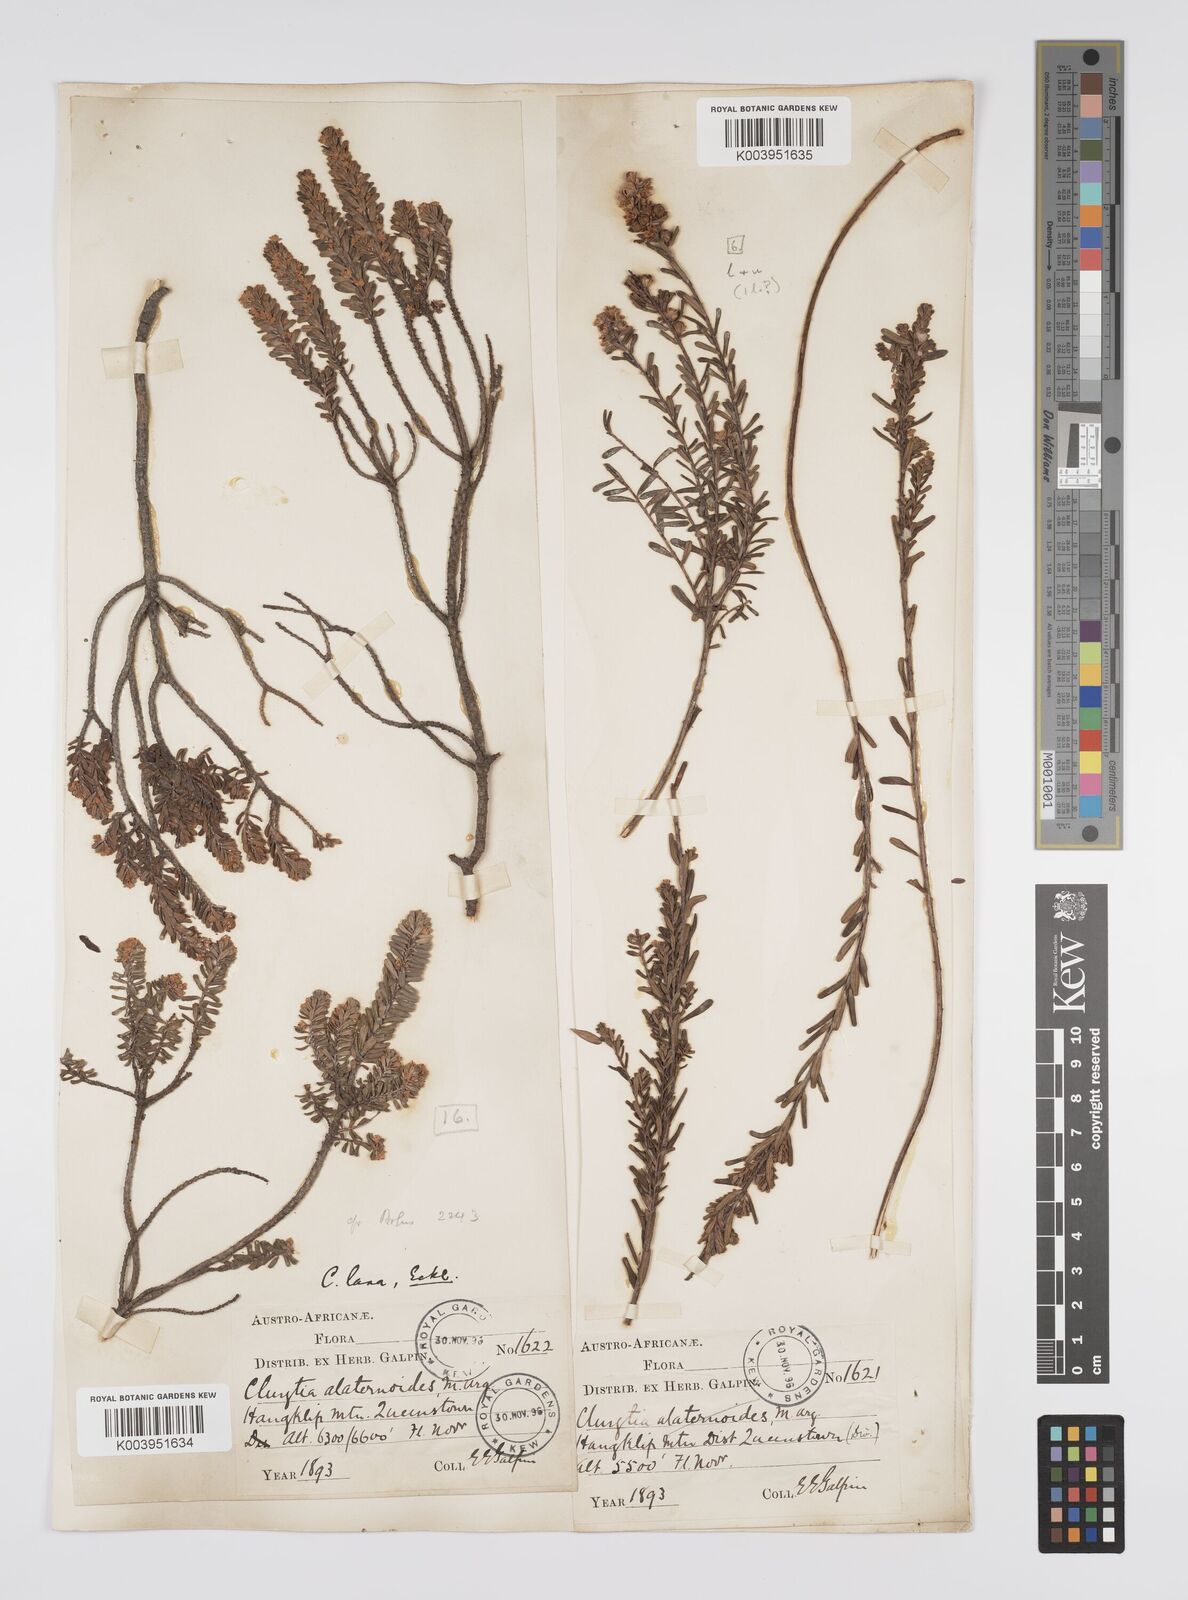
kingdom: Plantae
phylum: Tracheophyta
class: Magnoliopsida
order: Malpighiales
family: Peraceae
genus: Clutia
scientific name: Clutia laxa
